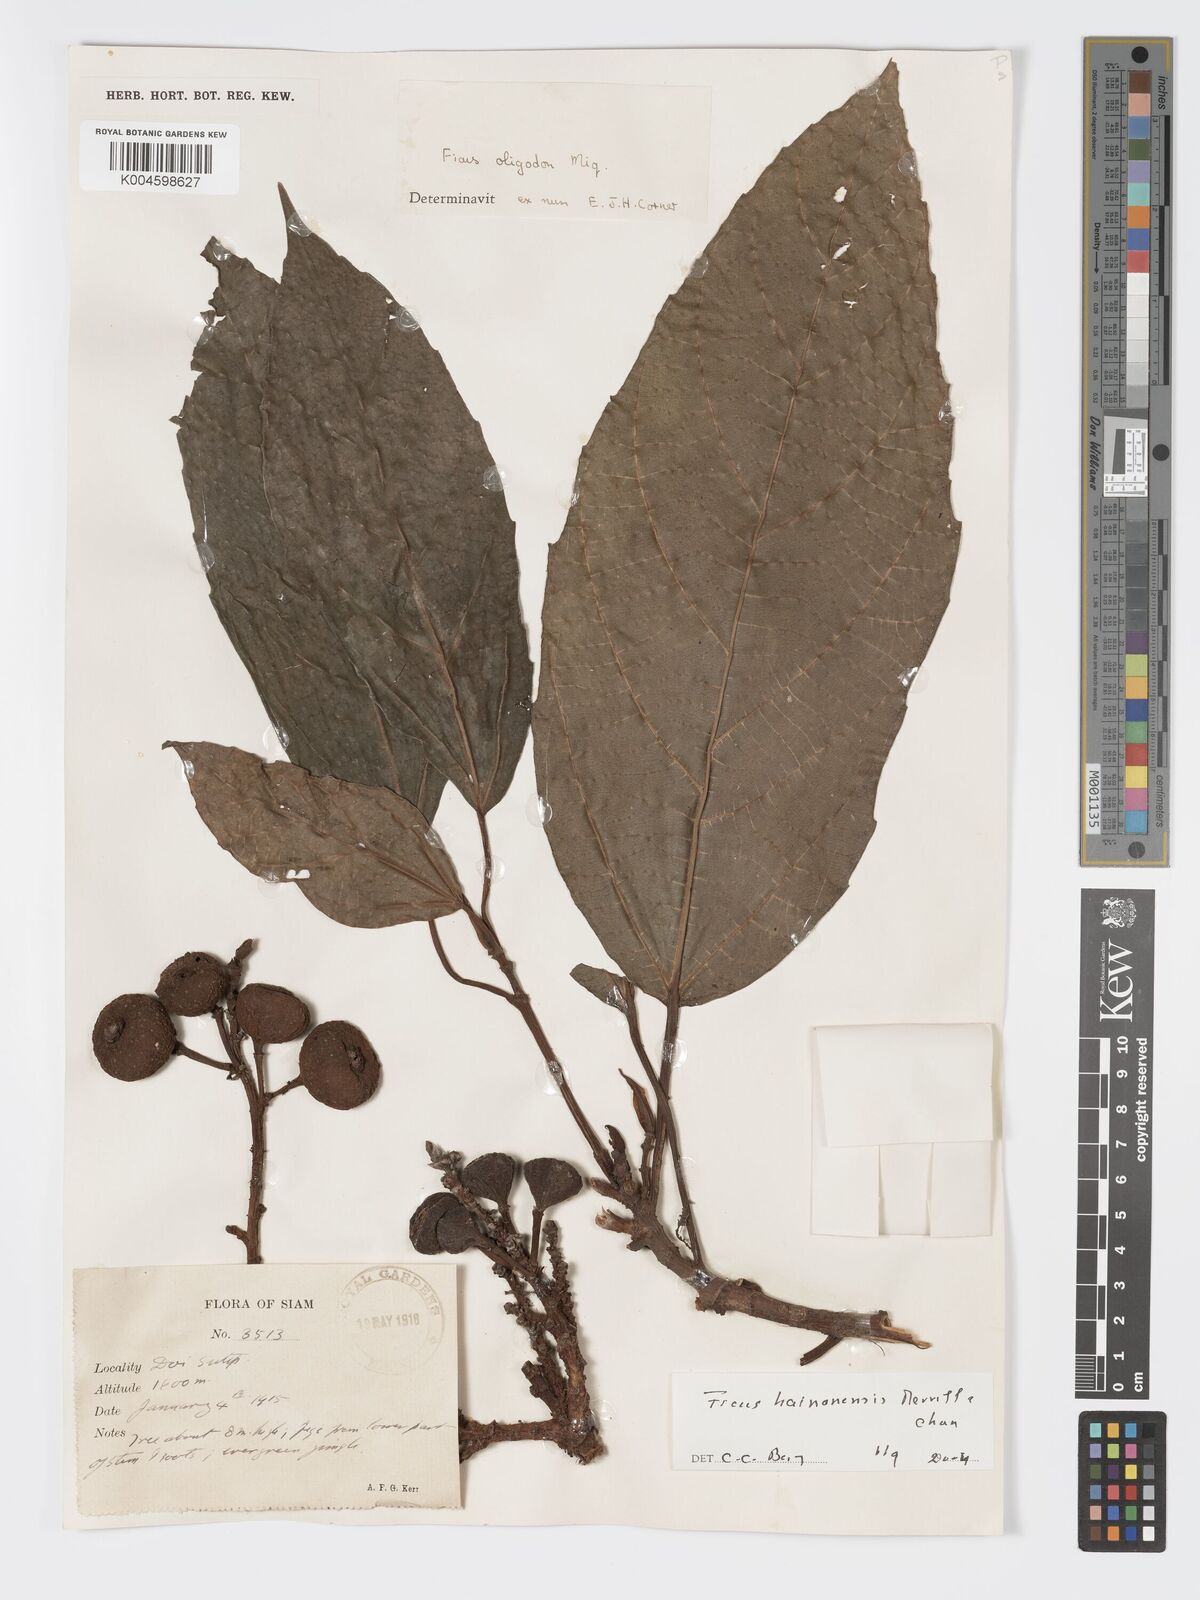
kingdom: Plantae
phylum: Tracheophyta
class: Magnoliopsida
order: Rosales
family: Moraceae
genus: Ficus
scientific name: Ficus auriculata
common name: Roxburgh fig
